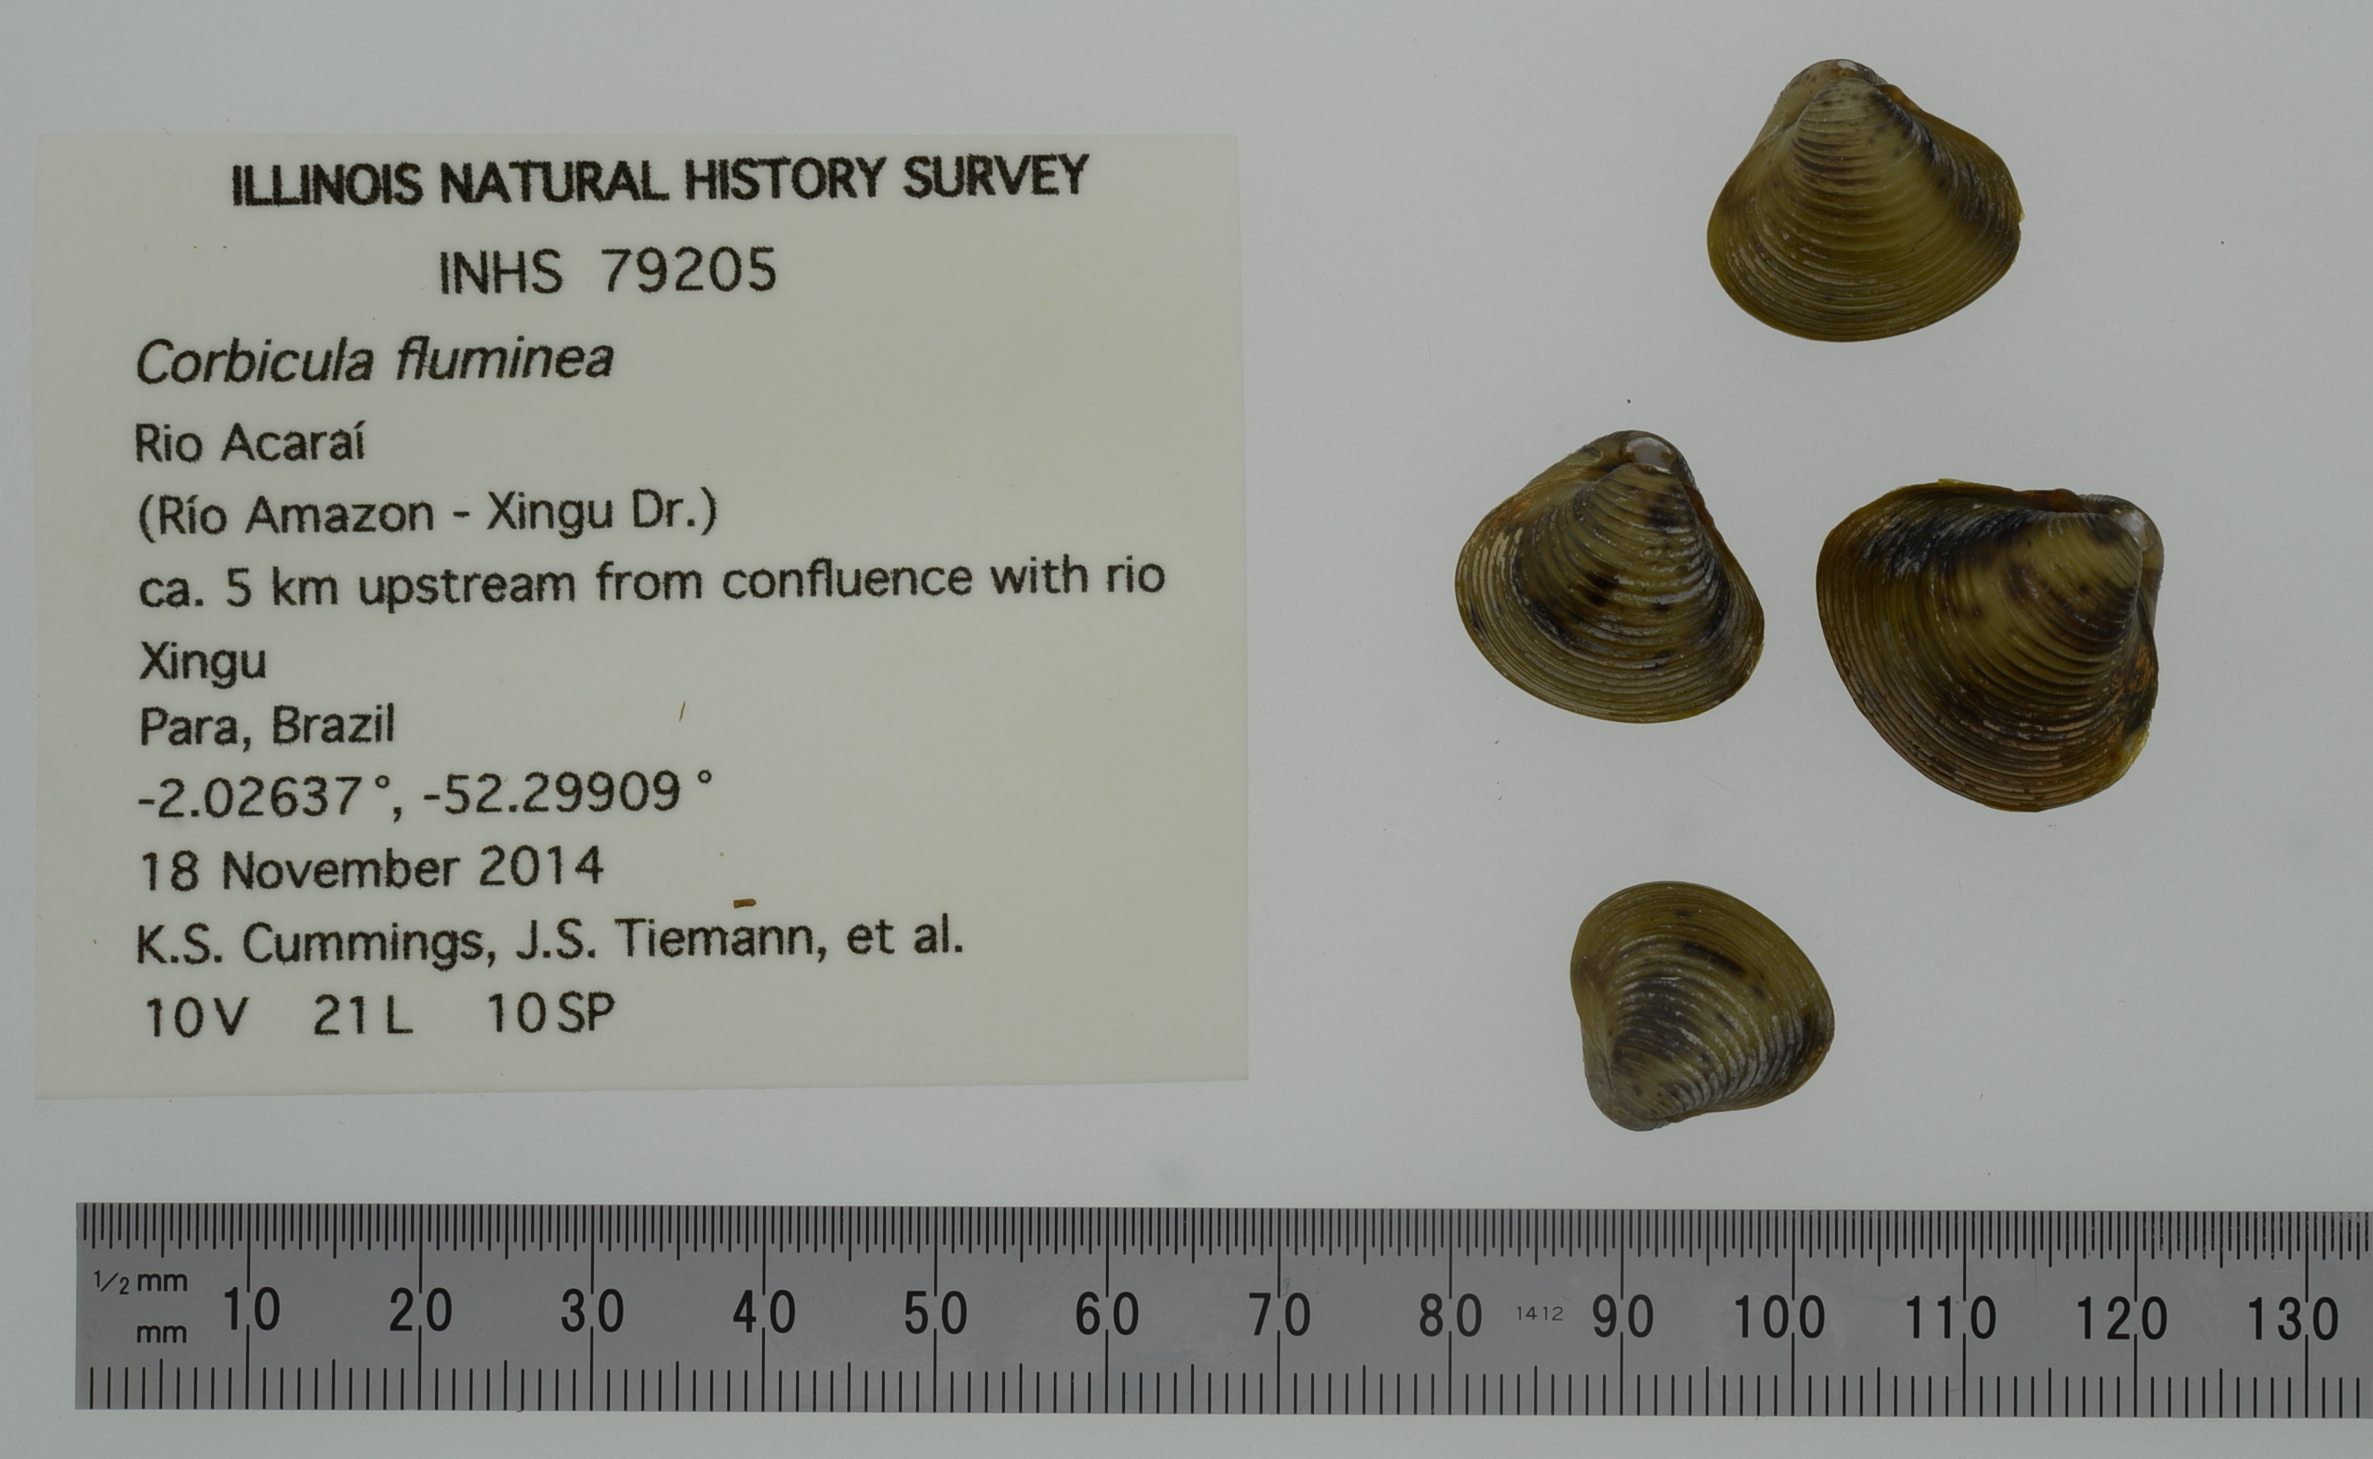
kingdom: Animalia
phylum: Mollusca
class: Bivalvia
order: Venerida
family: Cyrenidae
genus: Corbicula
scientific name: Corbicula fluminea
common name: Asian clam
